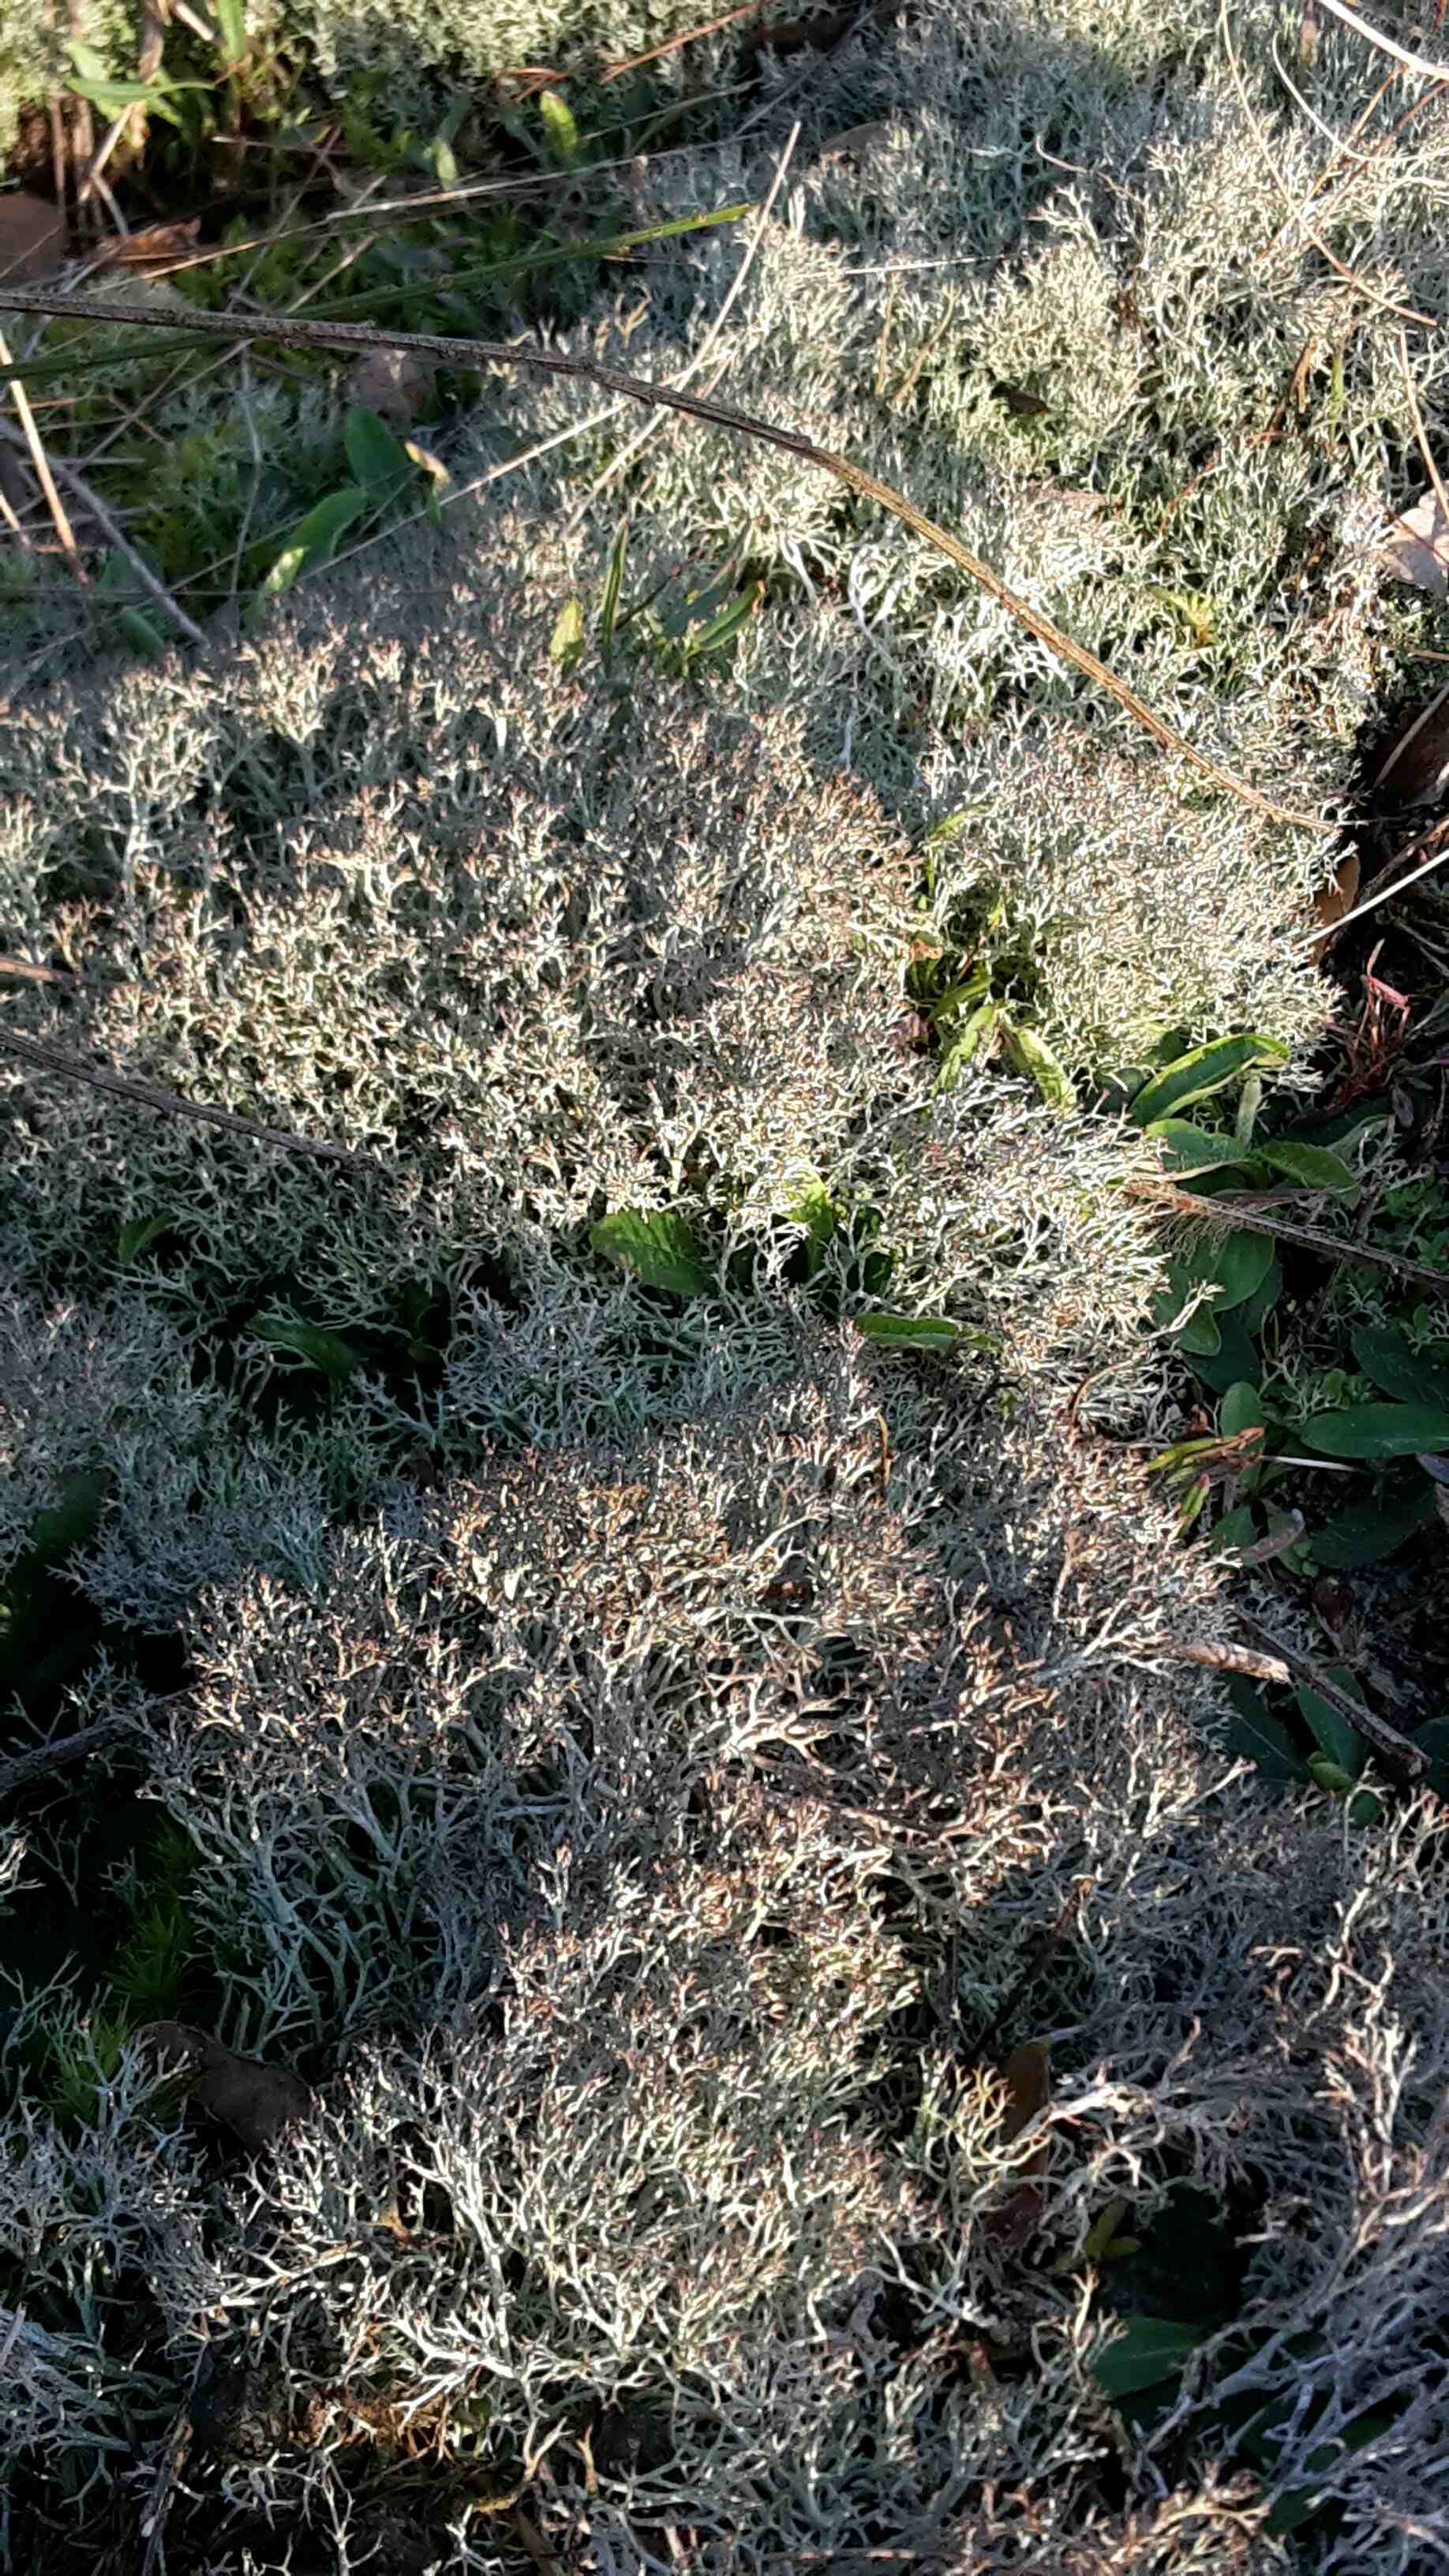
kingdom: Fungi
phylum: Ascomycota
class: Lecanoromycetes
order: Lecanorales
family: Cladoniaceae
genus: Cladonia
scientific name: Cladonia rangiformis
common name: spættet bægerlav
